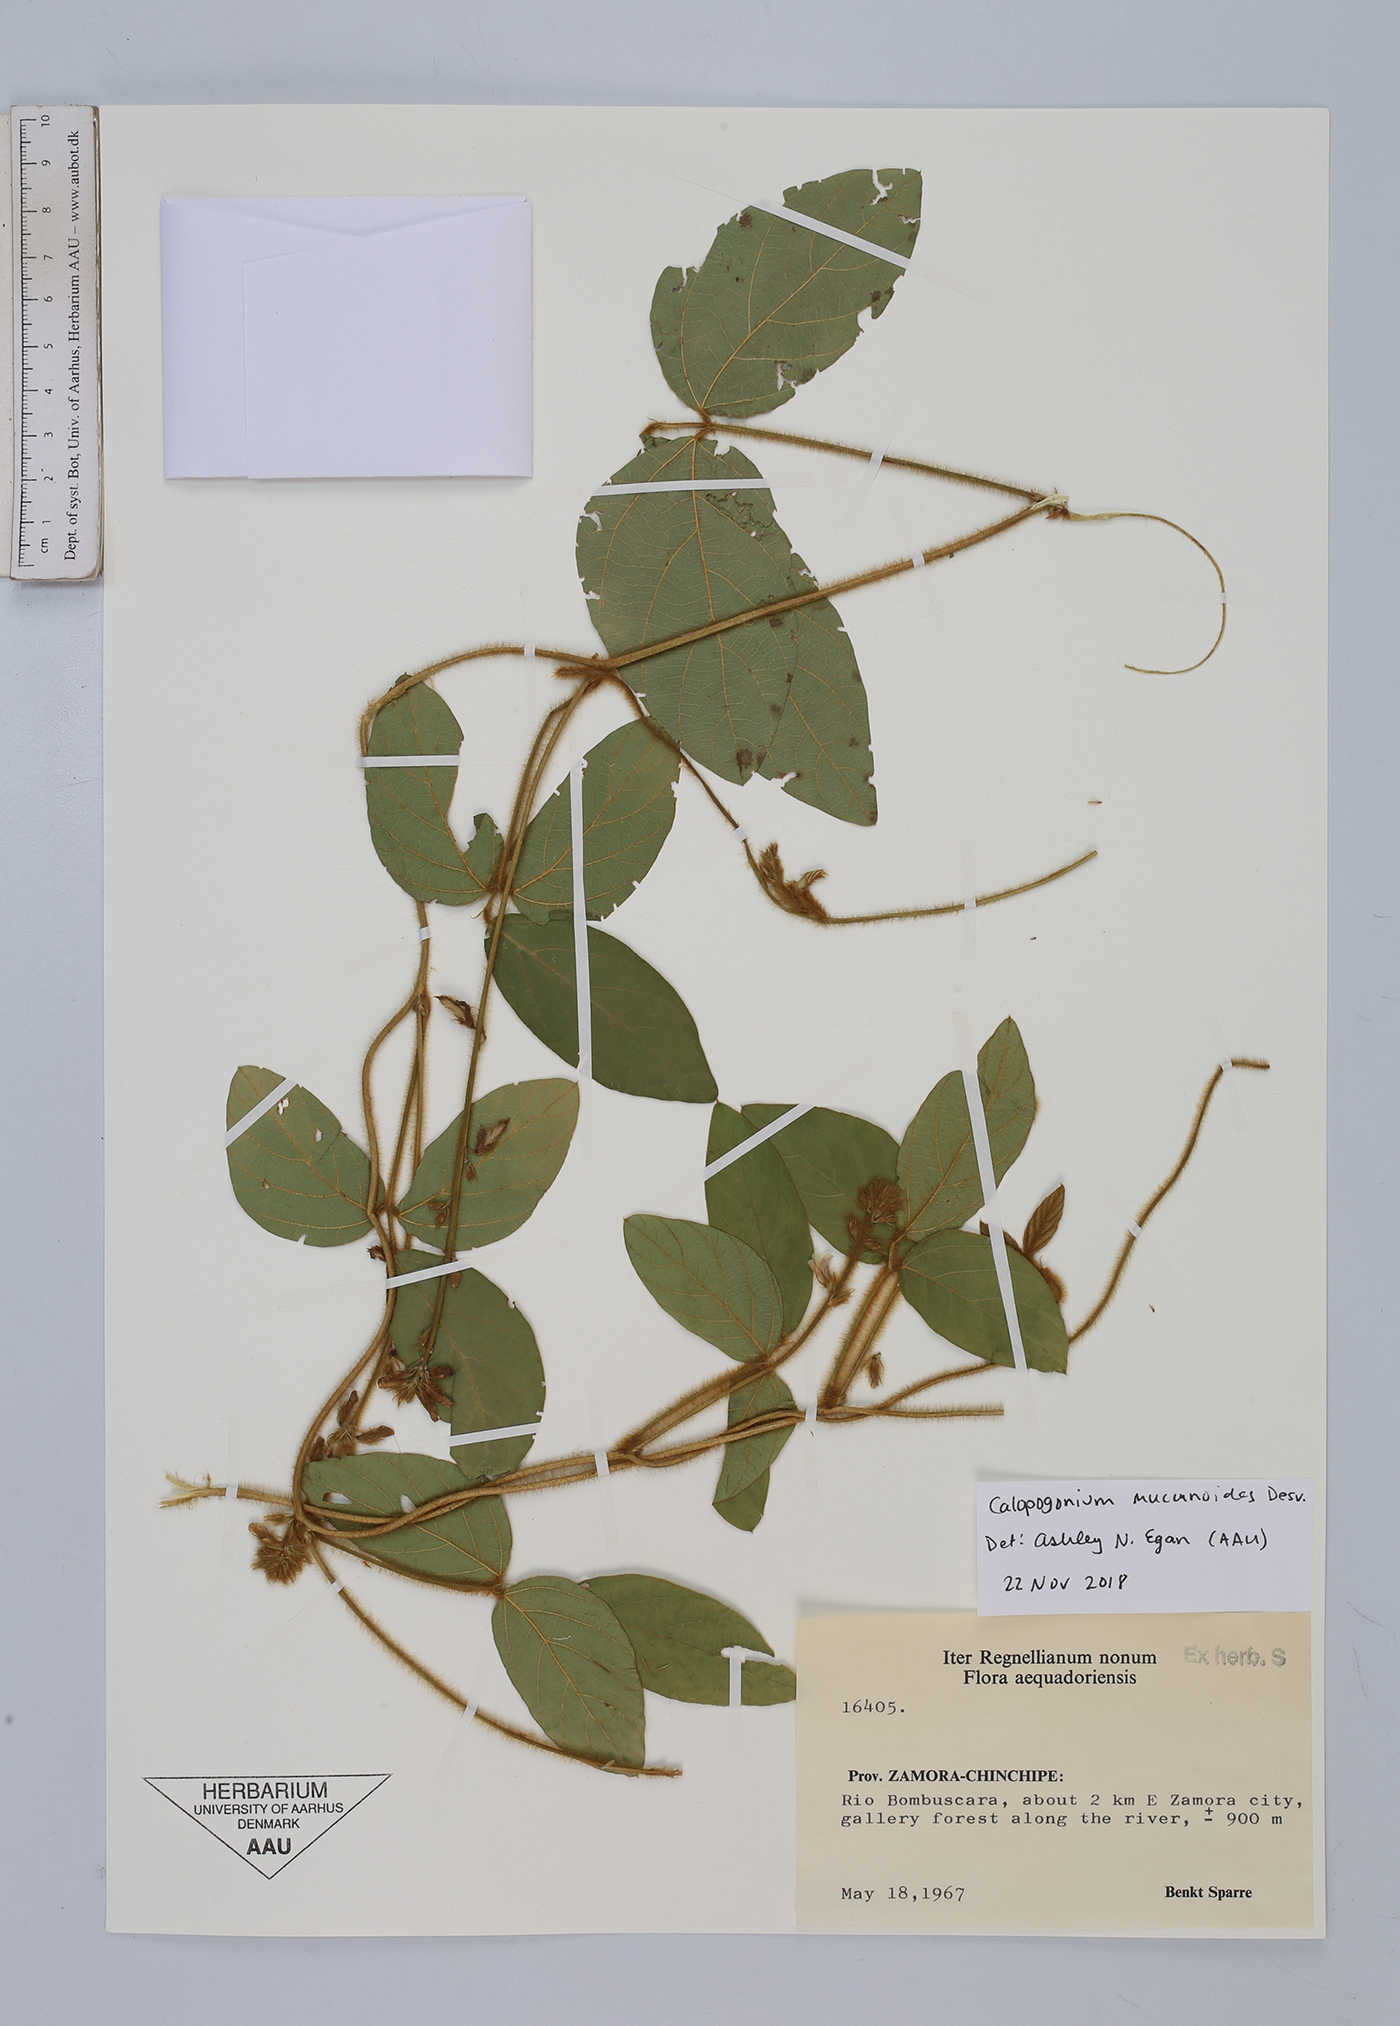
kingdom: Plantae
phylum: Tracheophyta
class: Magnoliopsida
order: Fabales
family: Fabaceae
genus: Calopogonium
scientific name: Calopogonium mucunoides
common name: Calopo
